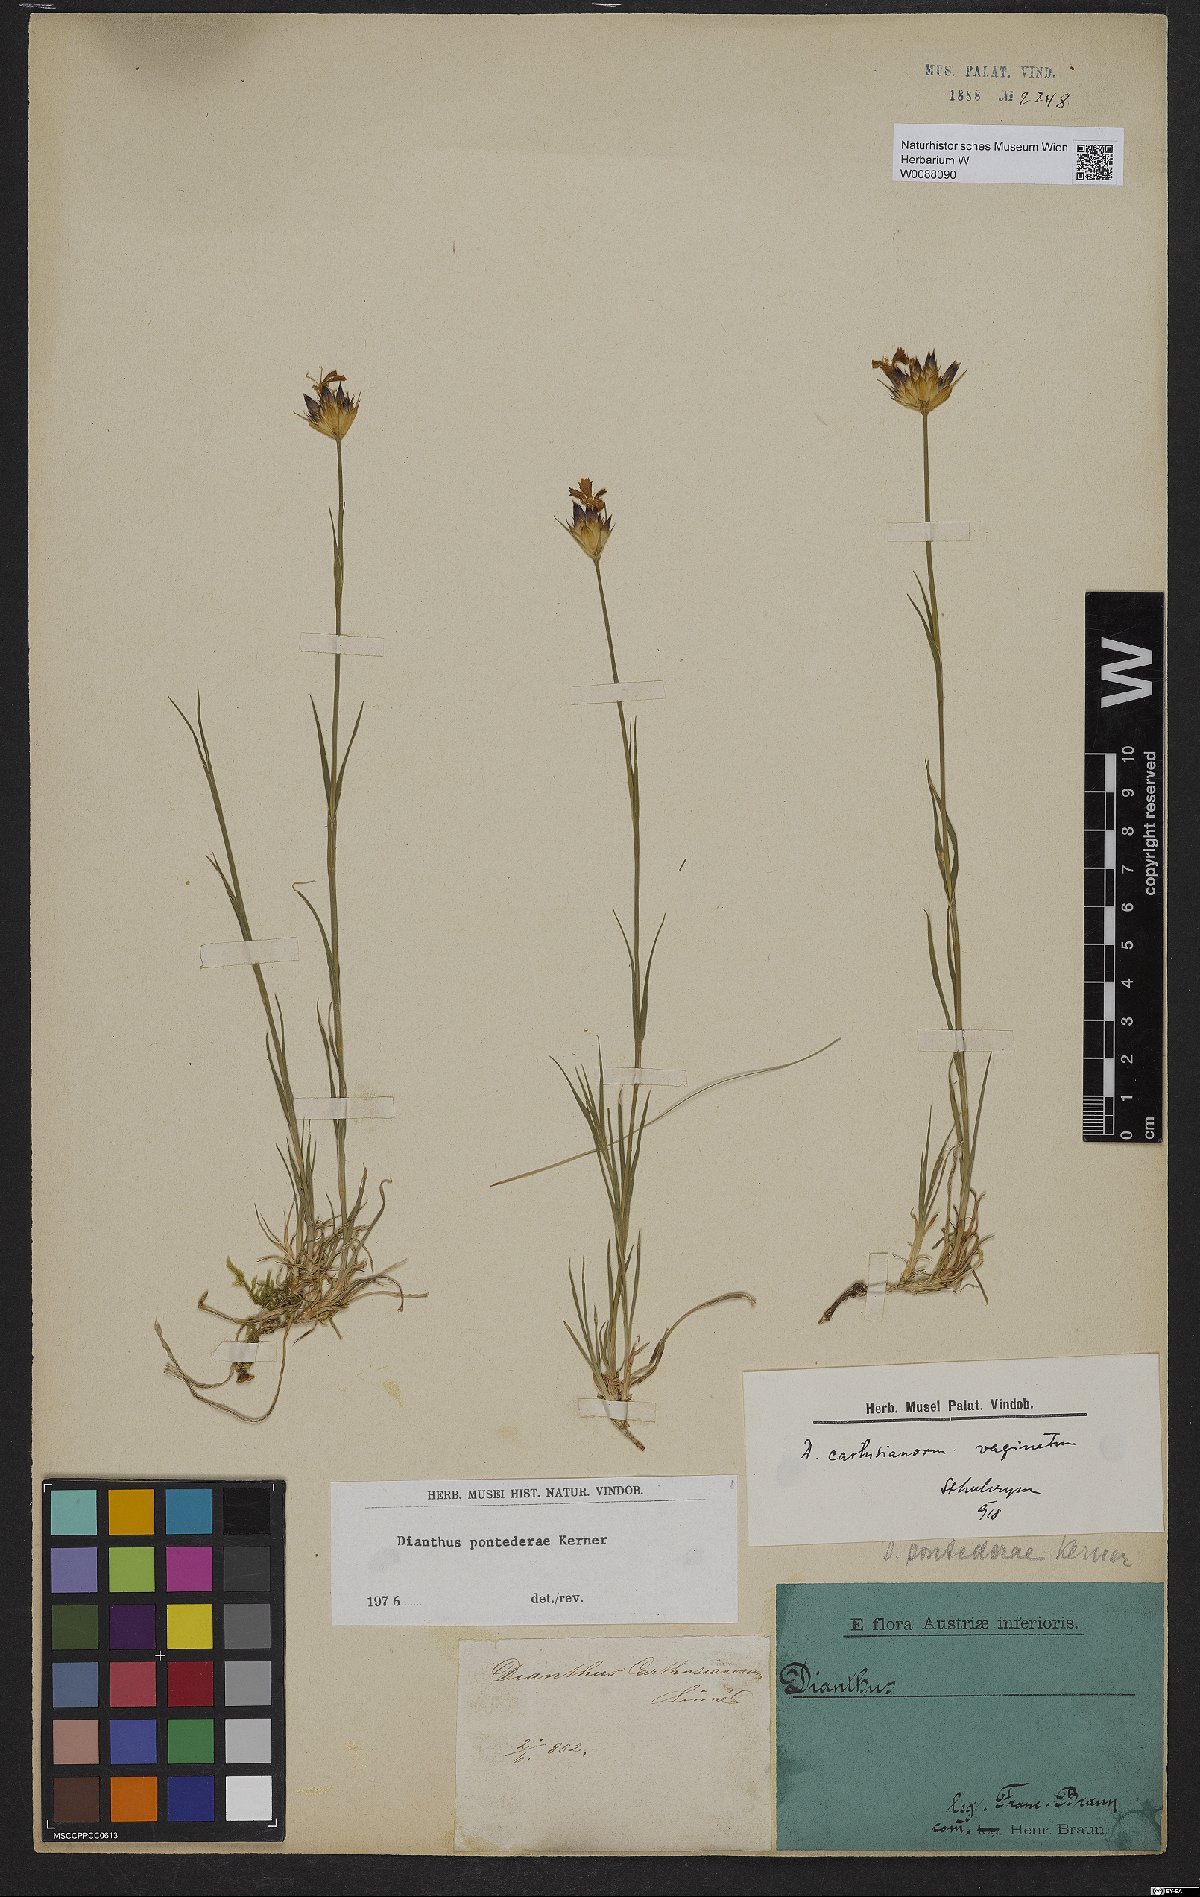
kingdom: Plantae
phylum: Tracheophyta
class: Magnoliopsida
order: Caryophyllales
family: Caryophyllaceae
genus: Dianthus
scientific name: Dianthus pontederae
